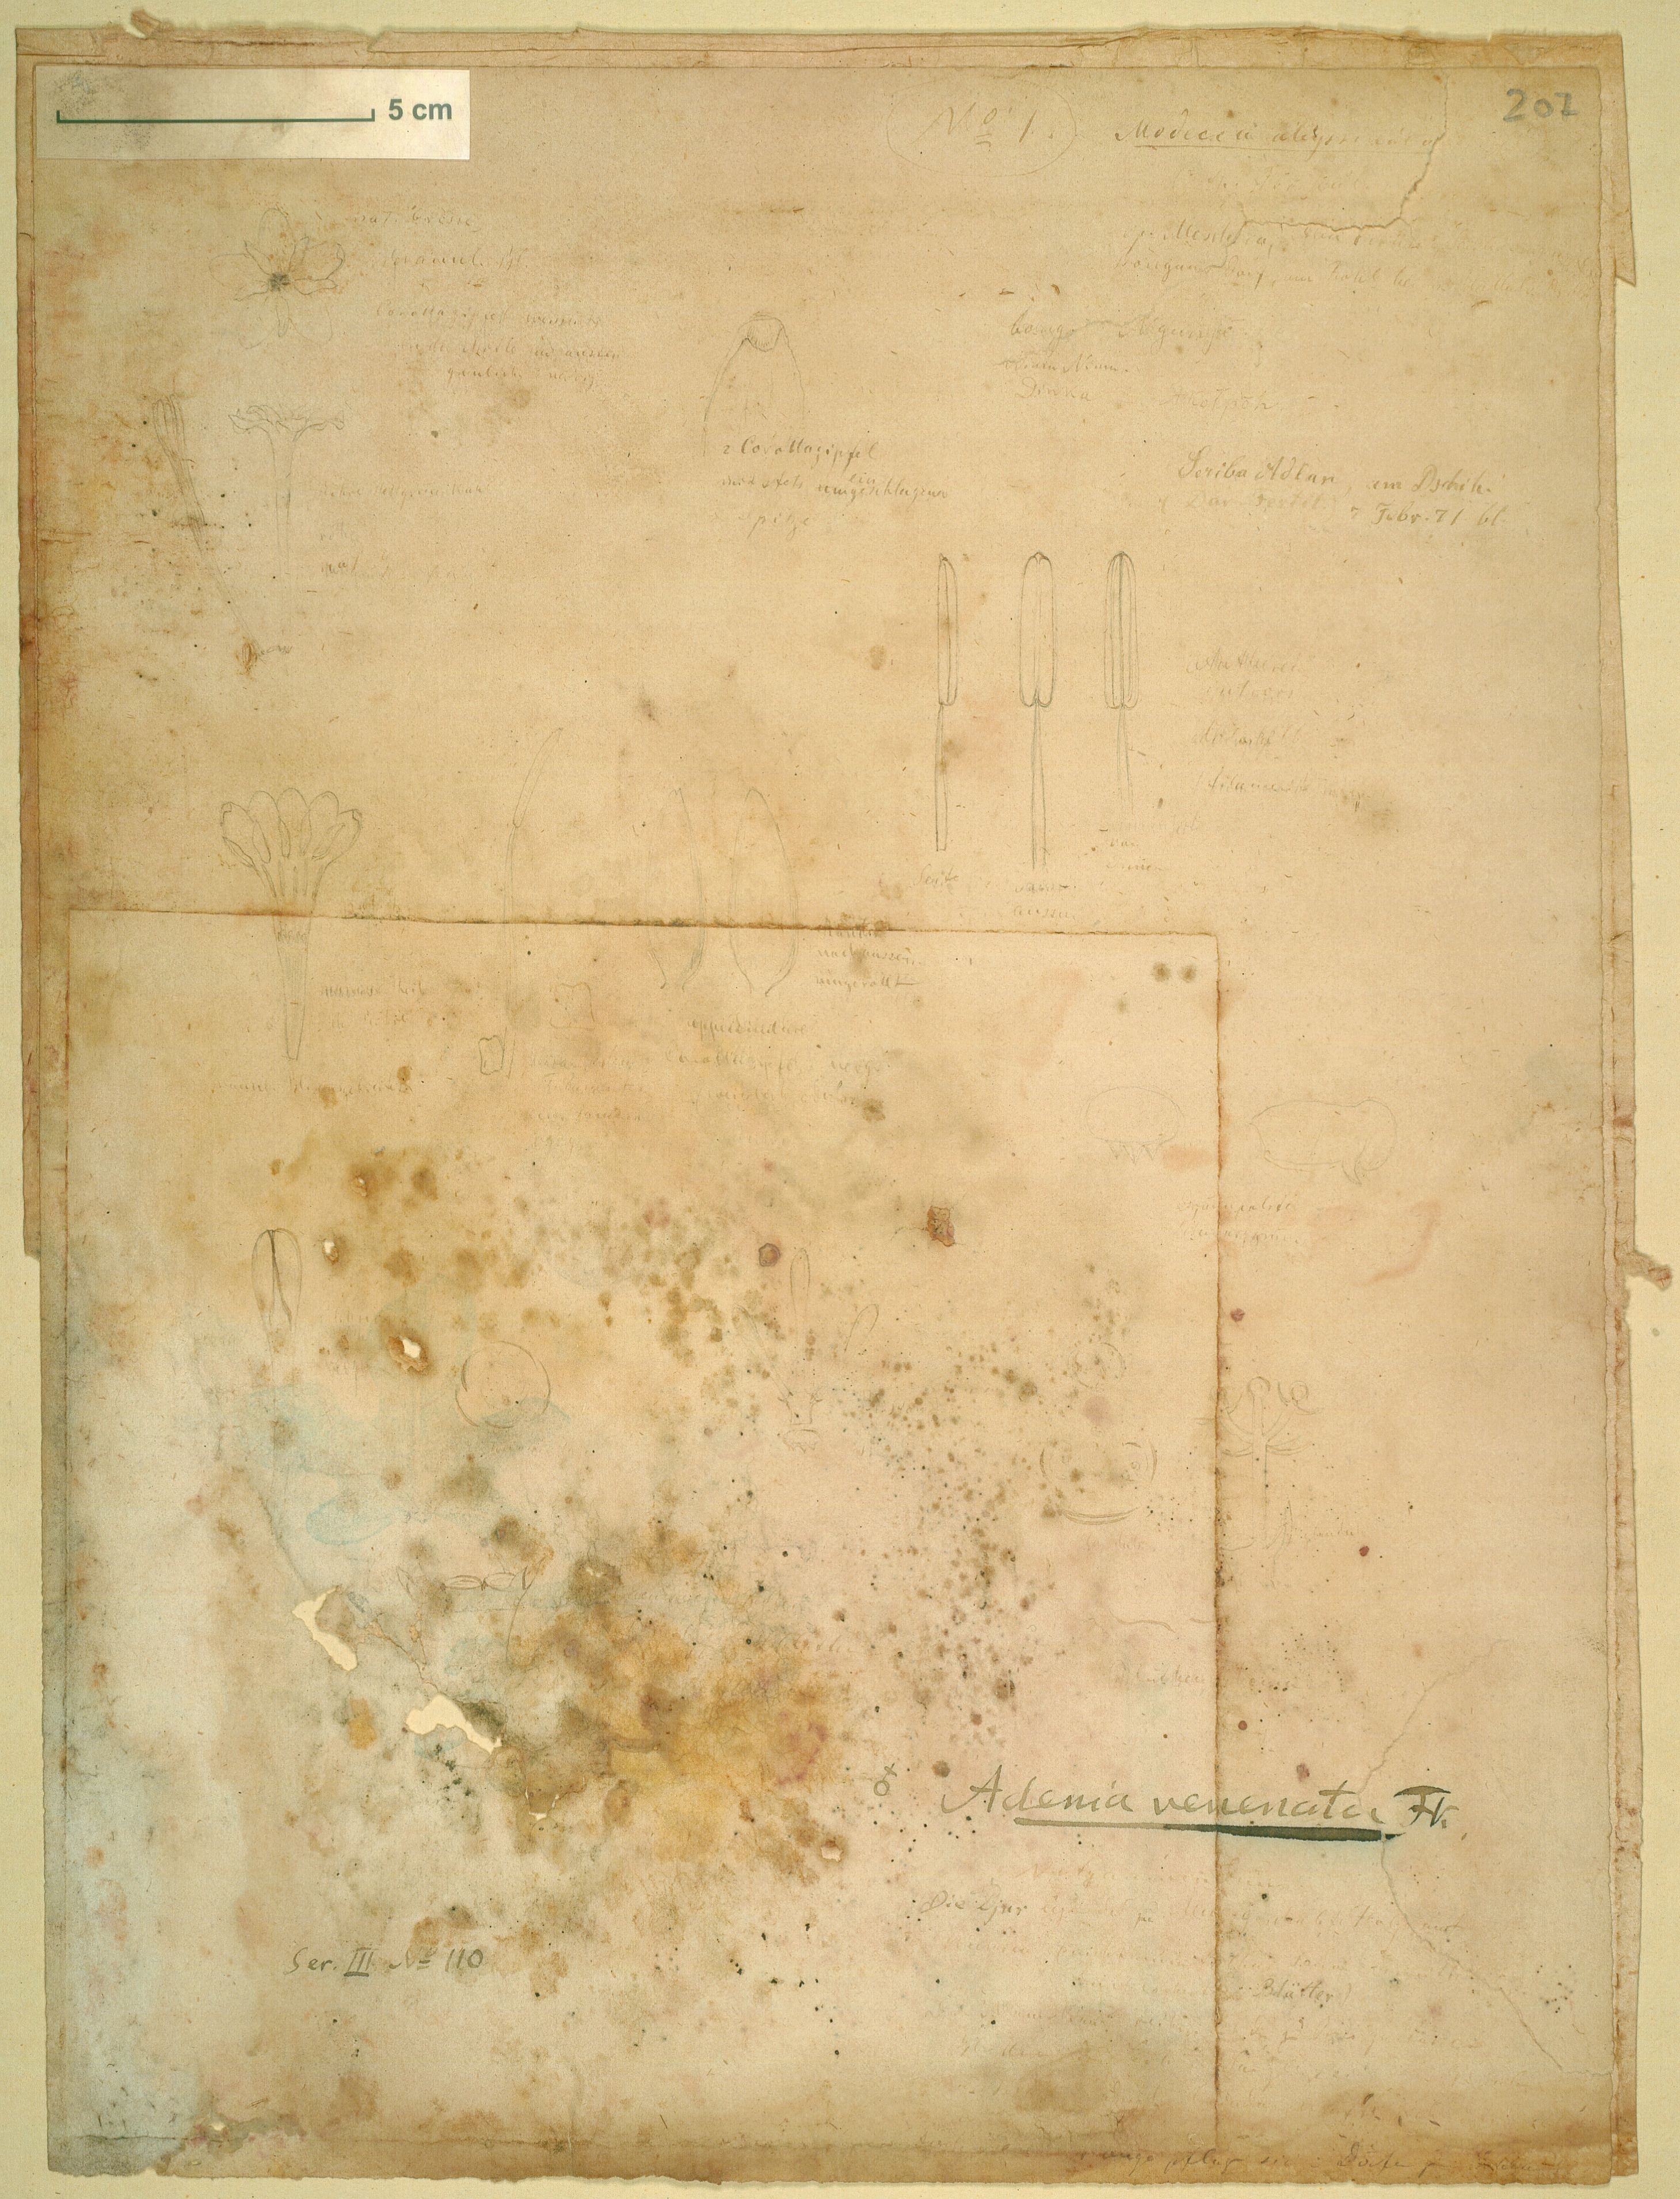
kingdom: Plantae
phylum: Tracheophyta
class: Magnoliopsida
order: Malpighiales
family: Passifloraceae
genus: Adenia
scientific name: Adenia venenata
